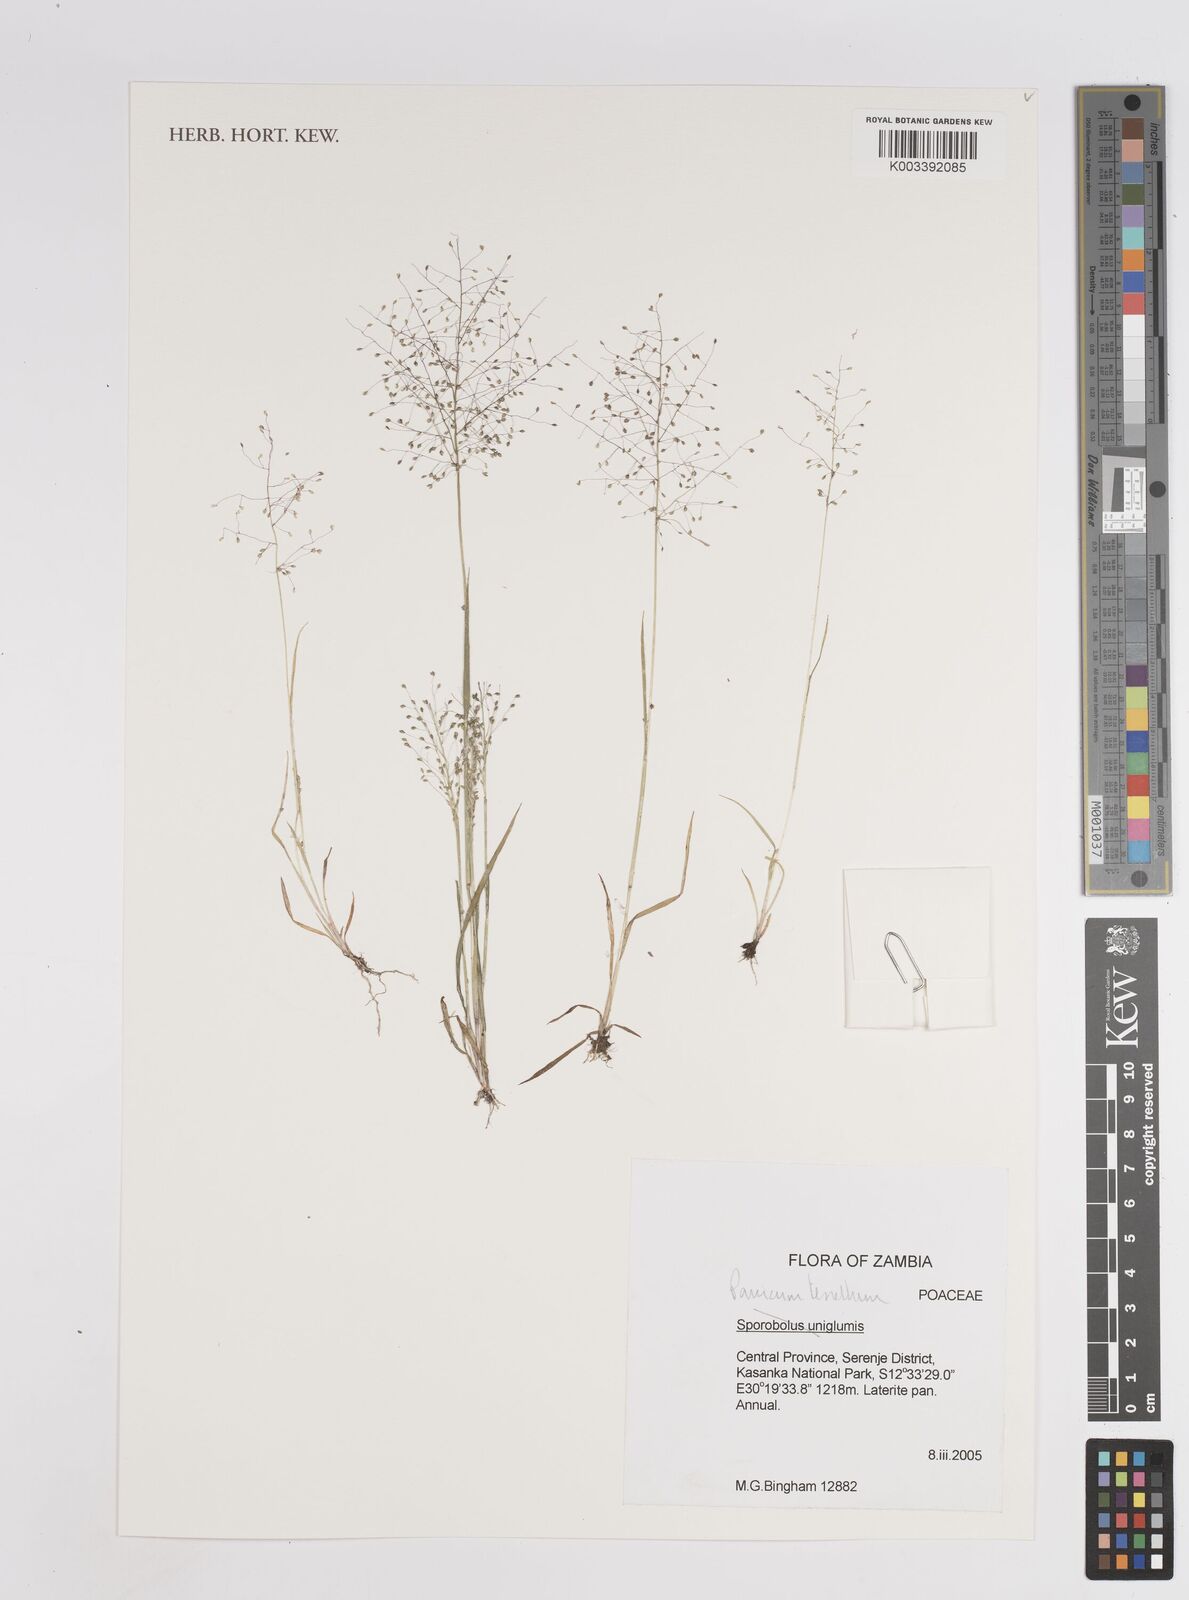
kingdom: Plantae
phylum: Tracheophyta
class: Liliopsida
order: Poales
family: Poaceae
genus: Trichanthecium
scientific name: Trichanthecium tenellum
